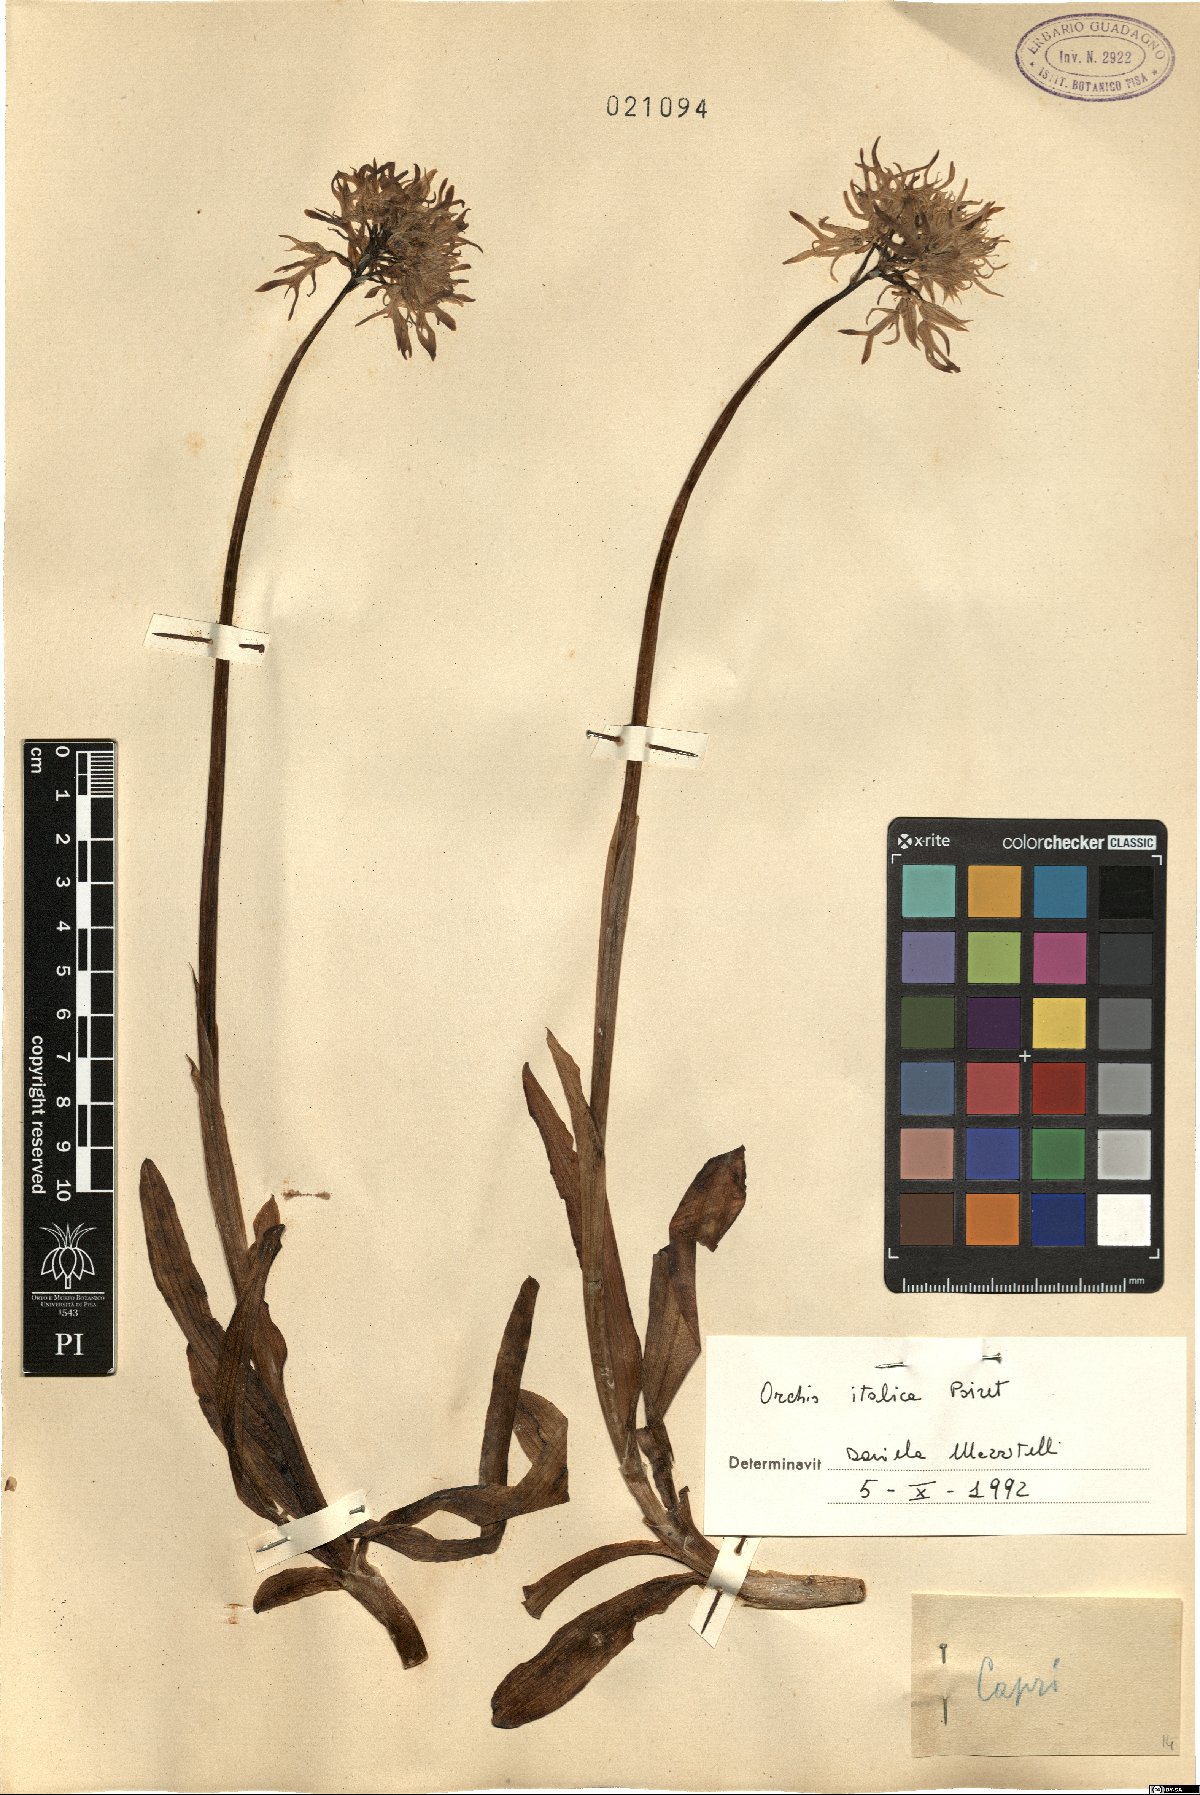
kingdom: Plantae
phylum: Tracheophyta
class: Liliopsida
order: Asparagales
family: Orchidaceae
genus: Orchis
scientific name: Orchis italica
